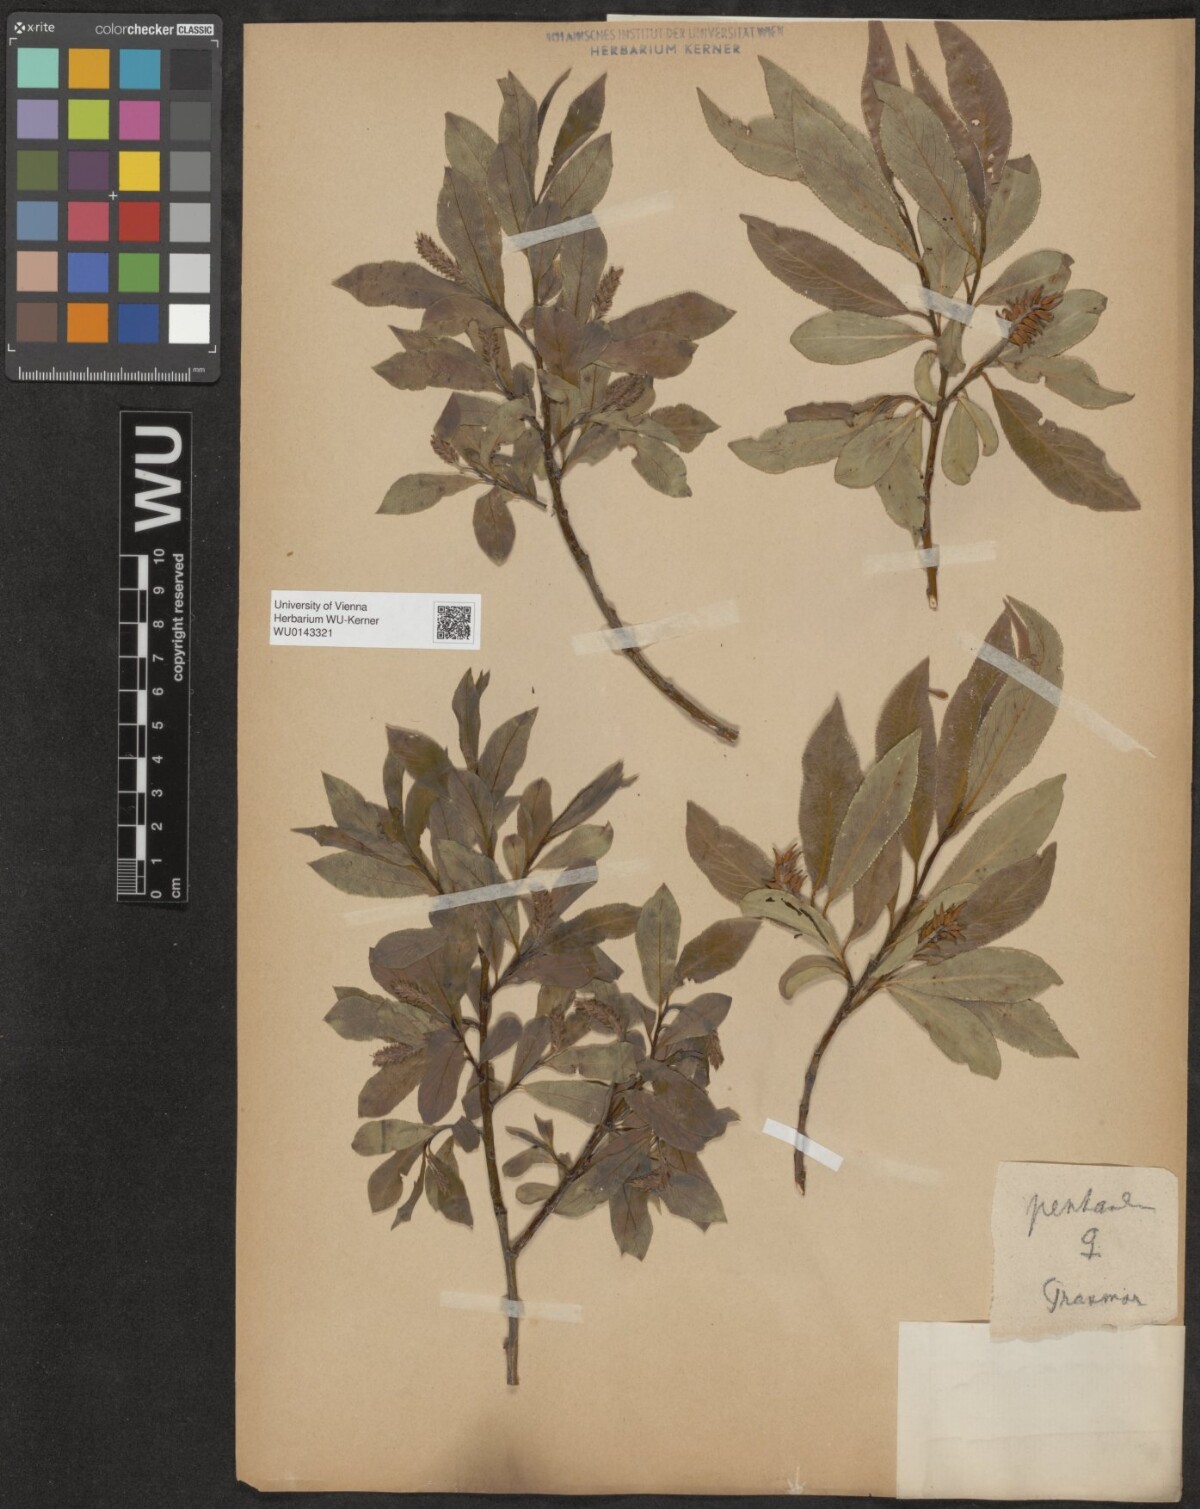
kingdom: Plantae
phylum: Tracheophyta
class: Magnoliopsida
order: Malpighiales
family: Salicaceae
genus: Salix
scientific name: Salix pentandra
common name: Bay willow
